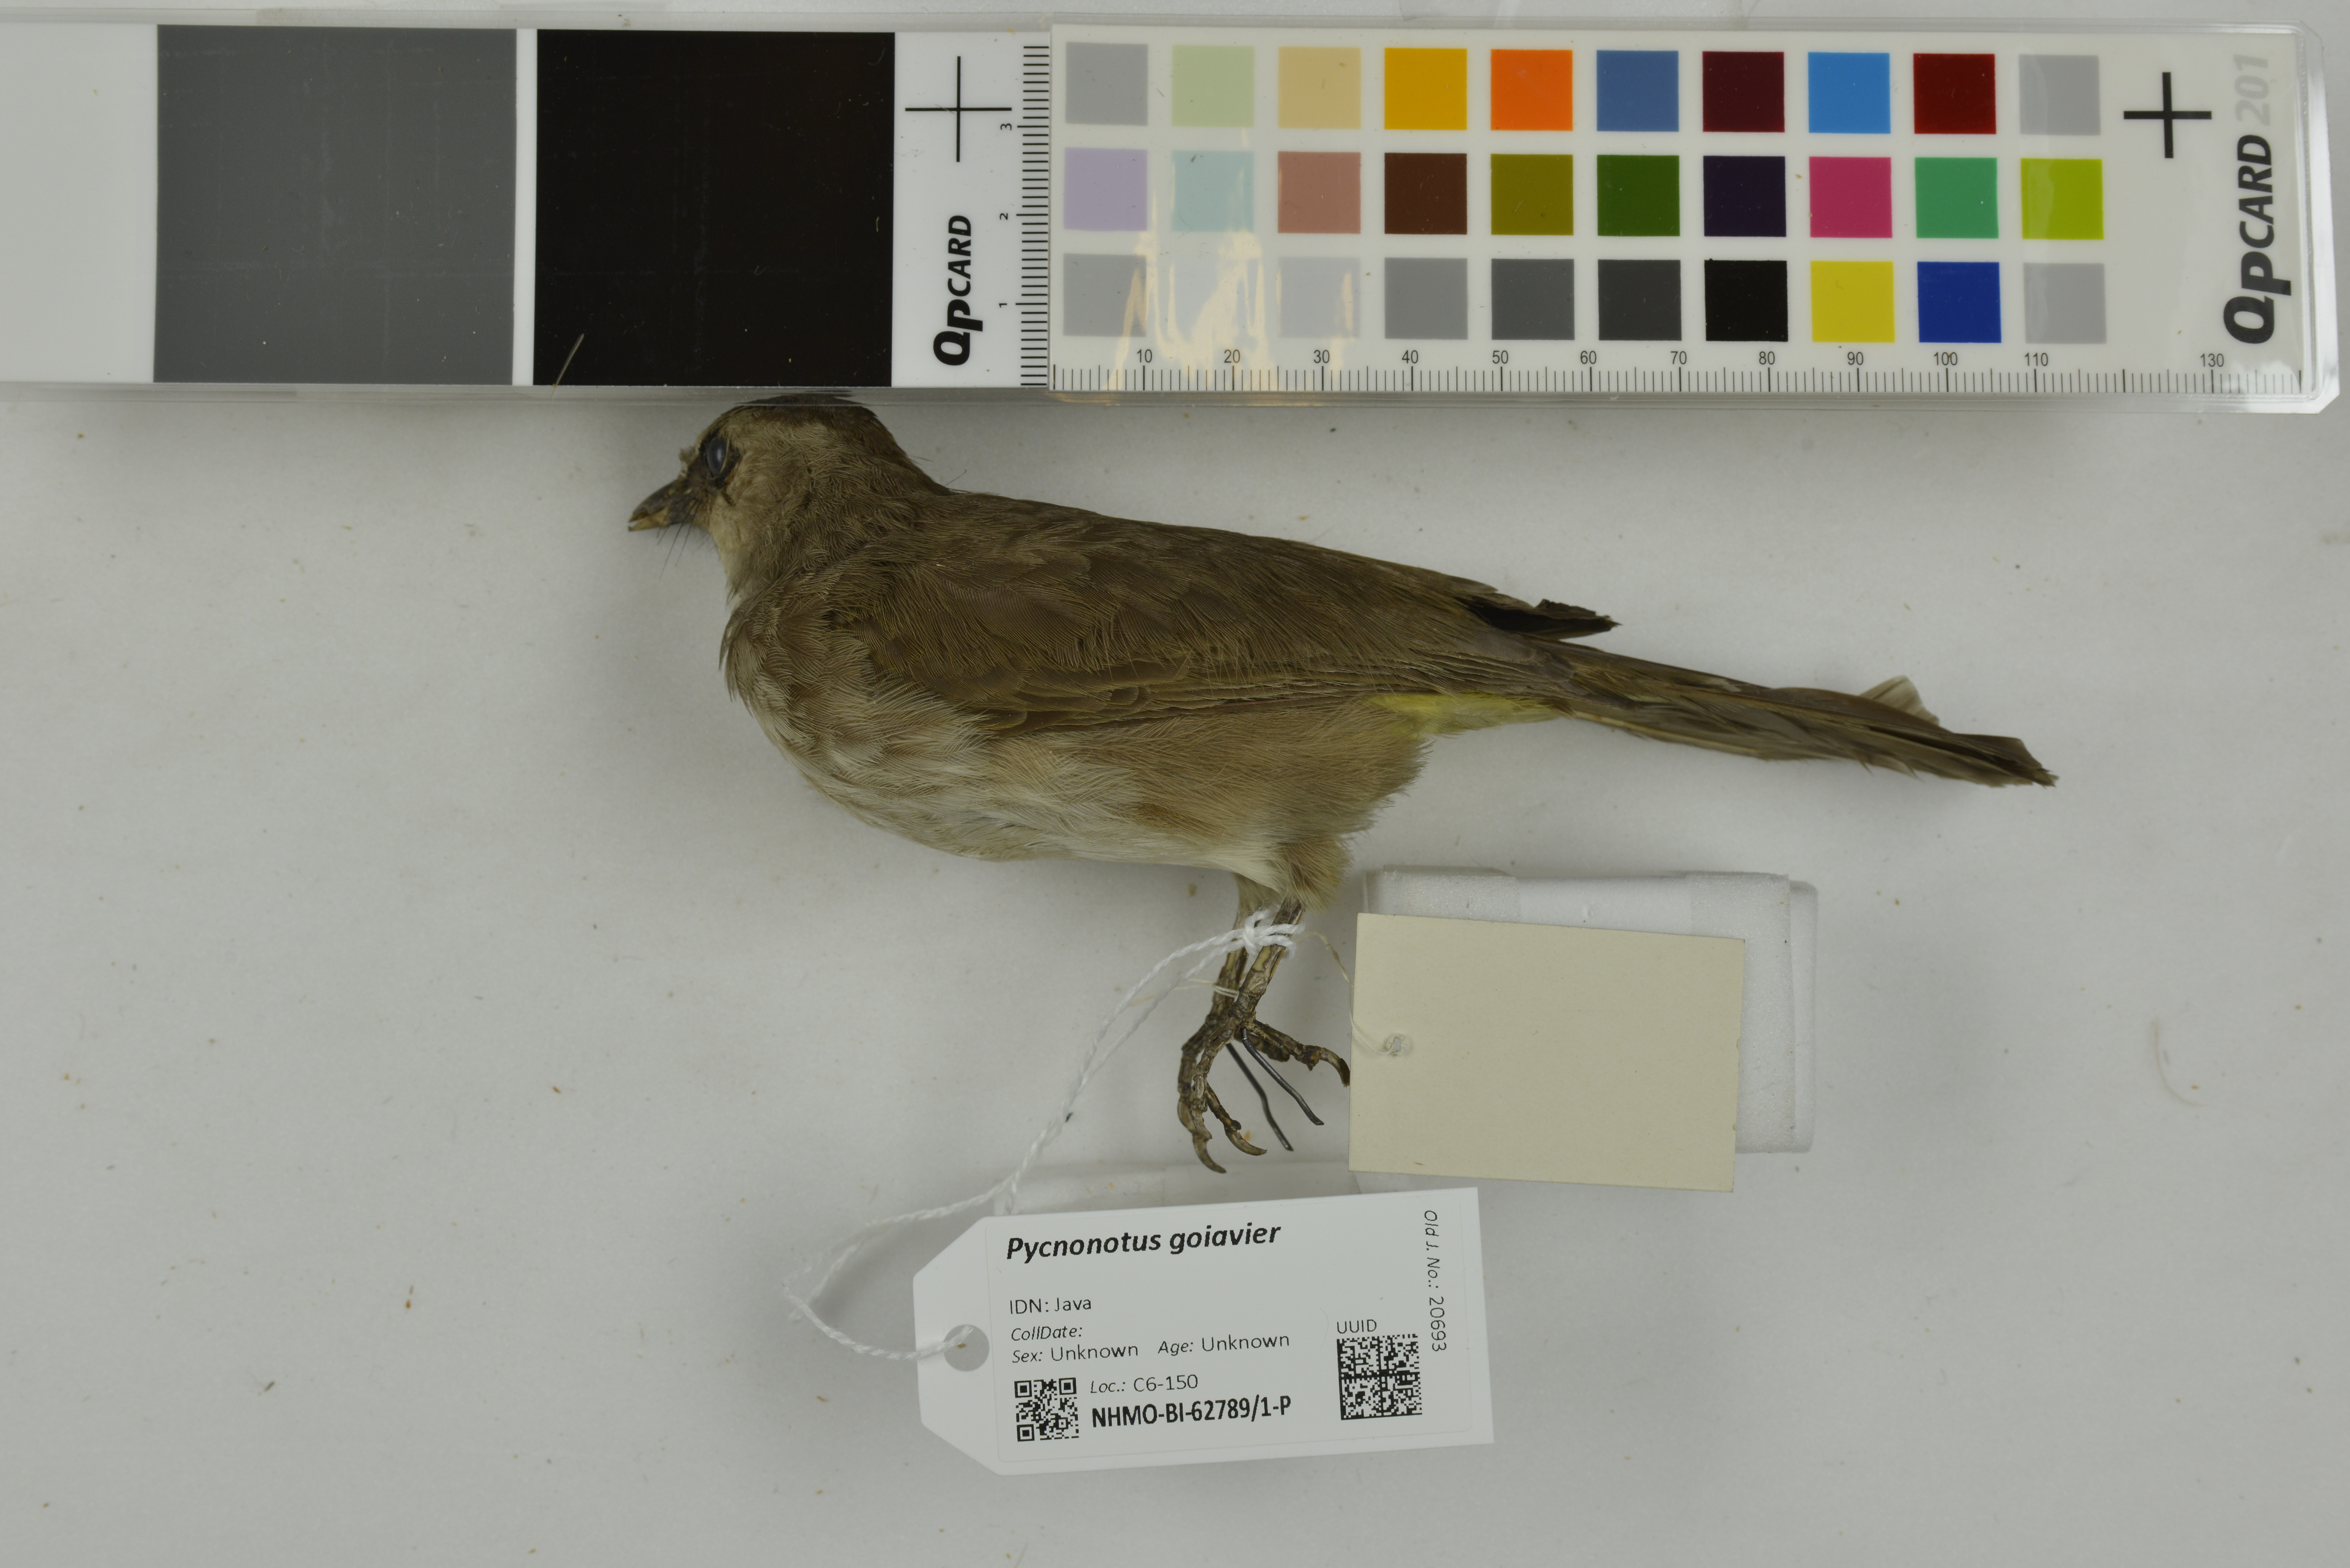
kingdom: Animalia
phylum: Chordata
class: Aves
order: Passeriformes
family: Pycnonotidae
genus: Pycnonotus
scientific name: Pycnonotus goiavier
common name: Yellow-vented bulbul
